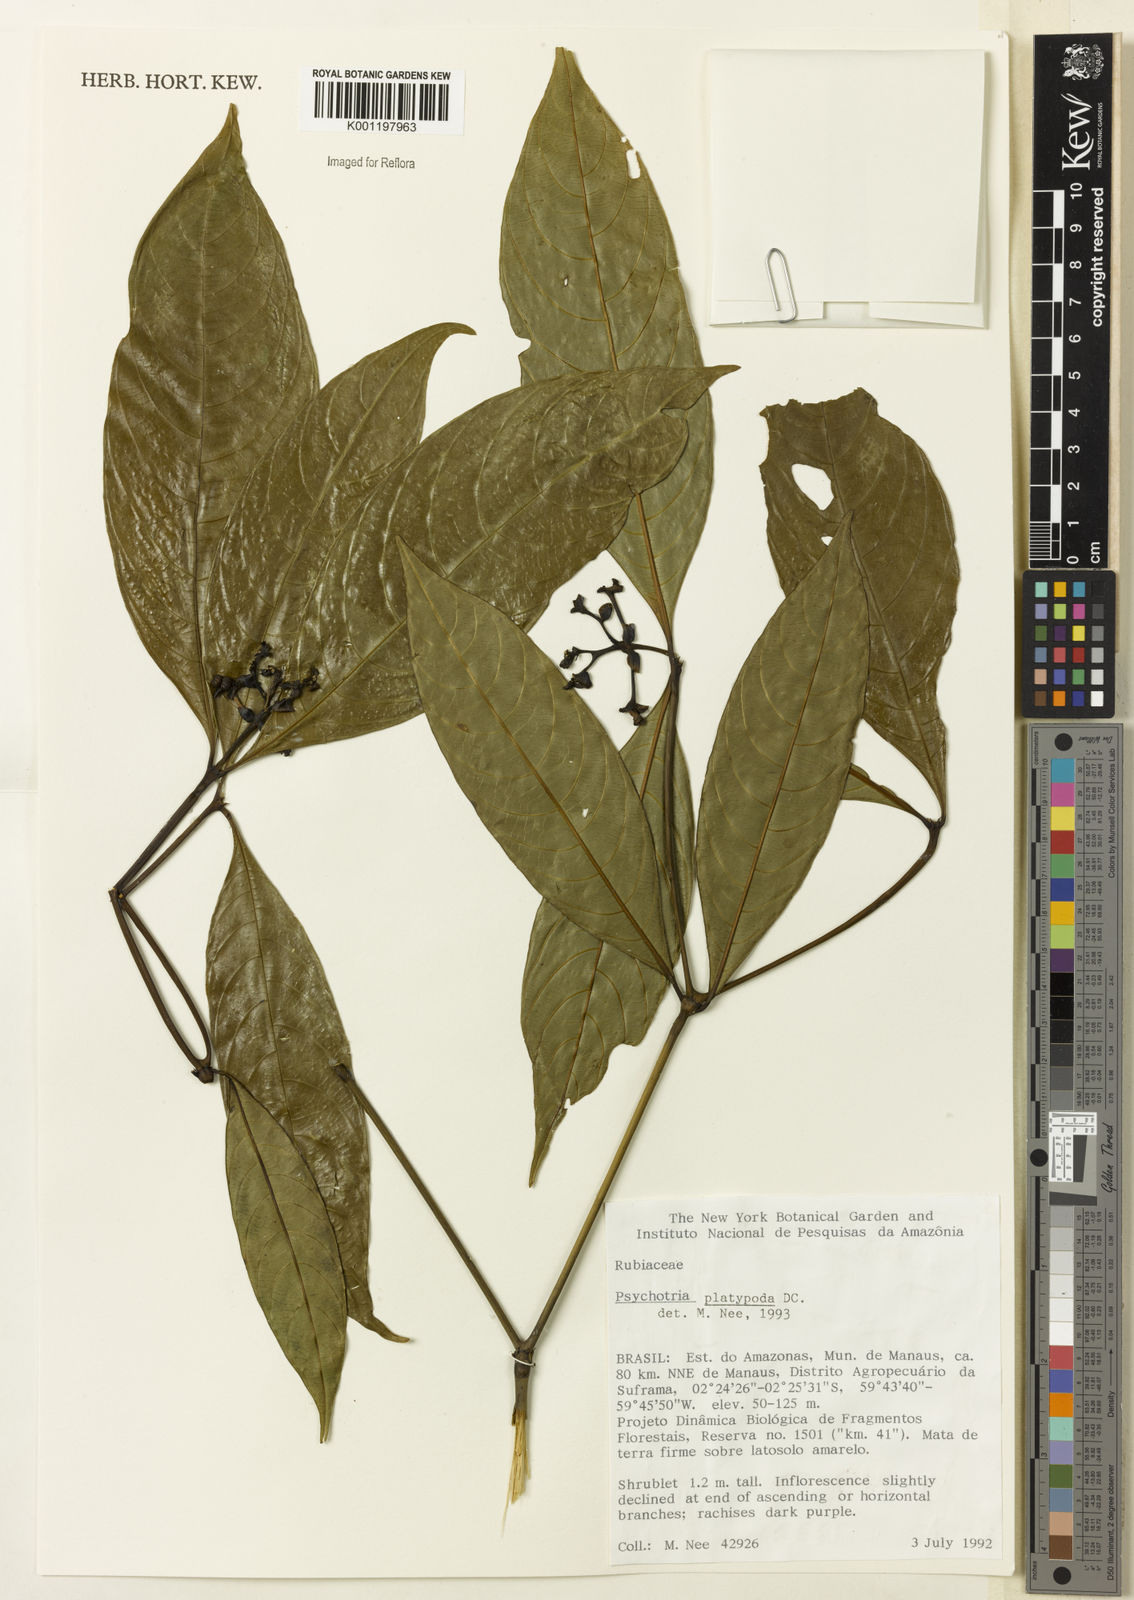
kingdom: Plantae
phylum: Tracheophyta
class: Magnoliopsida
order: Gentianales
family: Rubiaceae
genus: Palicourea
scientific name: Palicourea dichotoma
